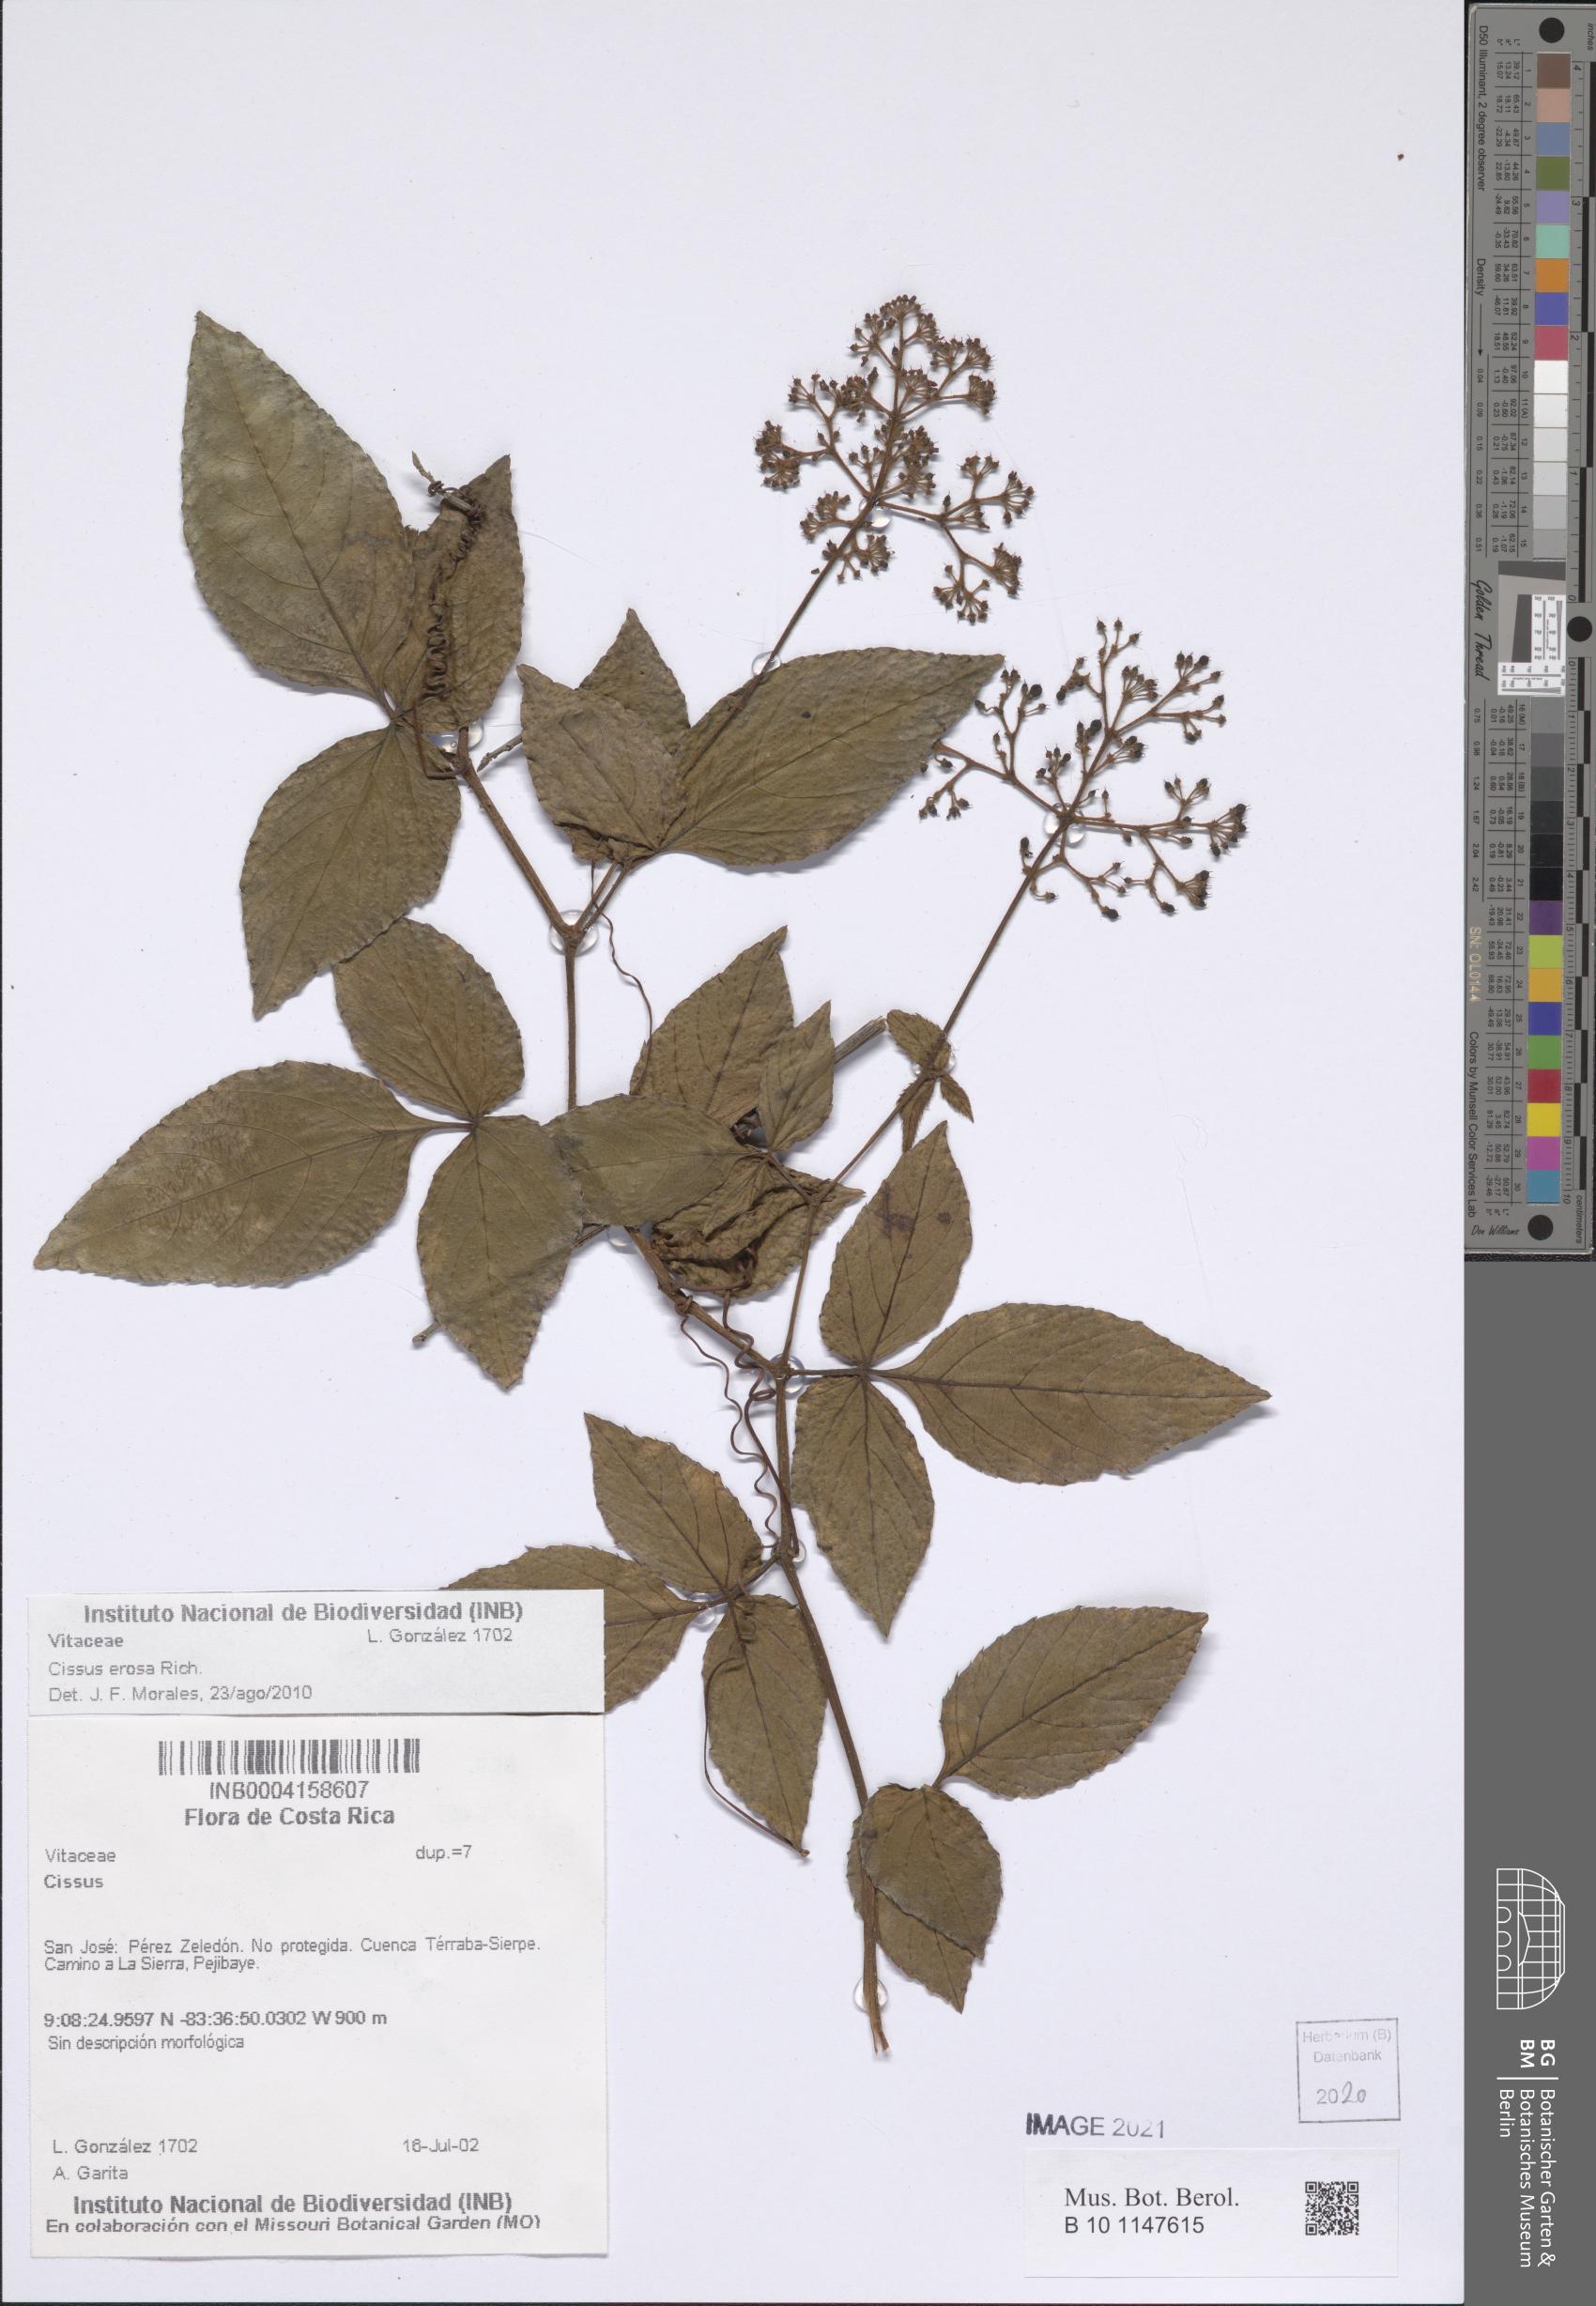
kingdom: Plantae
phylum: Tracheophyta
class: Magnoliopsida
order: Vitales
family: Vitaceae
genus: Cissus
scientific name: Cissus erosa
